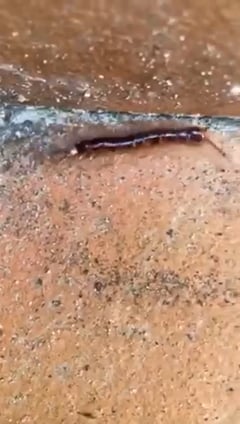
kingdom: Animalia
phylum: Arthropoda
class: Chilopoda
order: Scolopendromorpha
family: Cryptopidae
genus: Cryptops
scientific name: Cryptops hortensis
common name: Centipede
